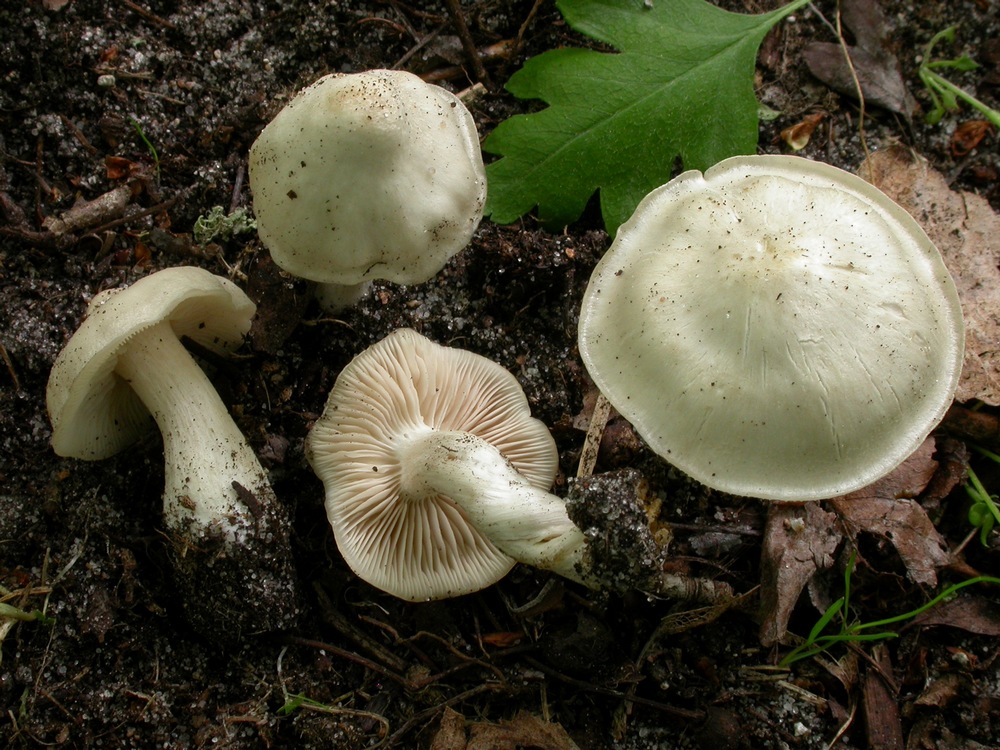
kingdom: Fungi
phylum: Basidiomycota
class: Agaricomycetes
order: Agaricales
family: Entolomataceae
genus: Entoloma
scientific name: Entoloma clypeatum
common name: flammet rødblad
